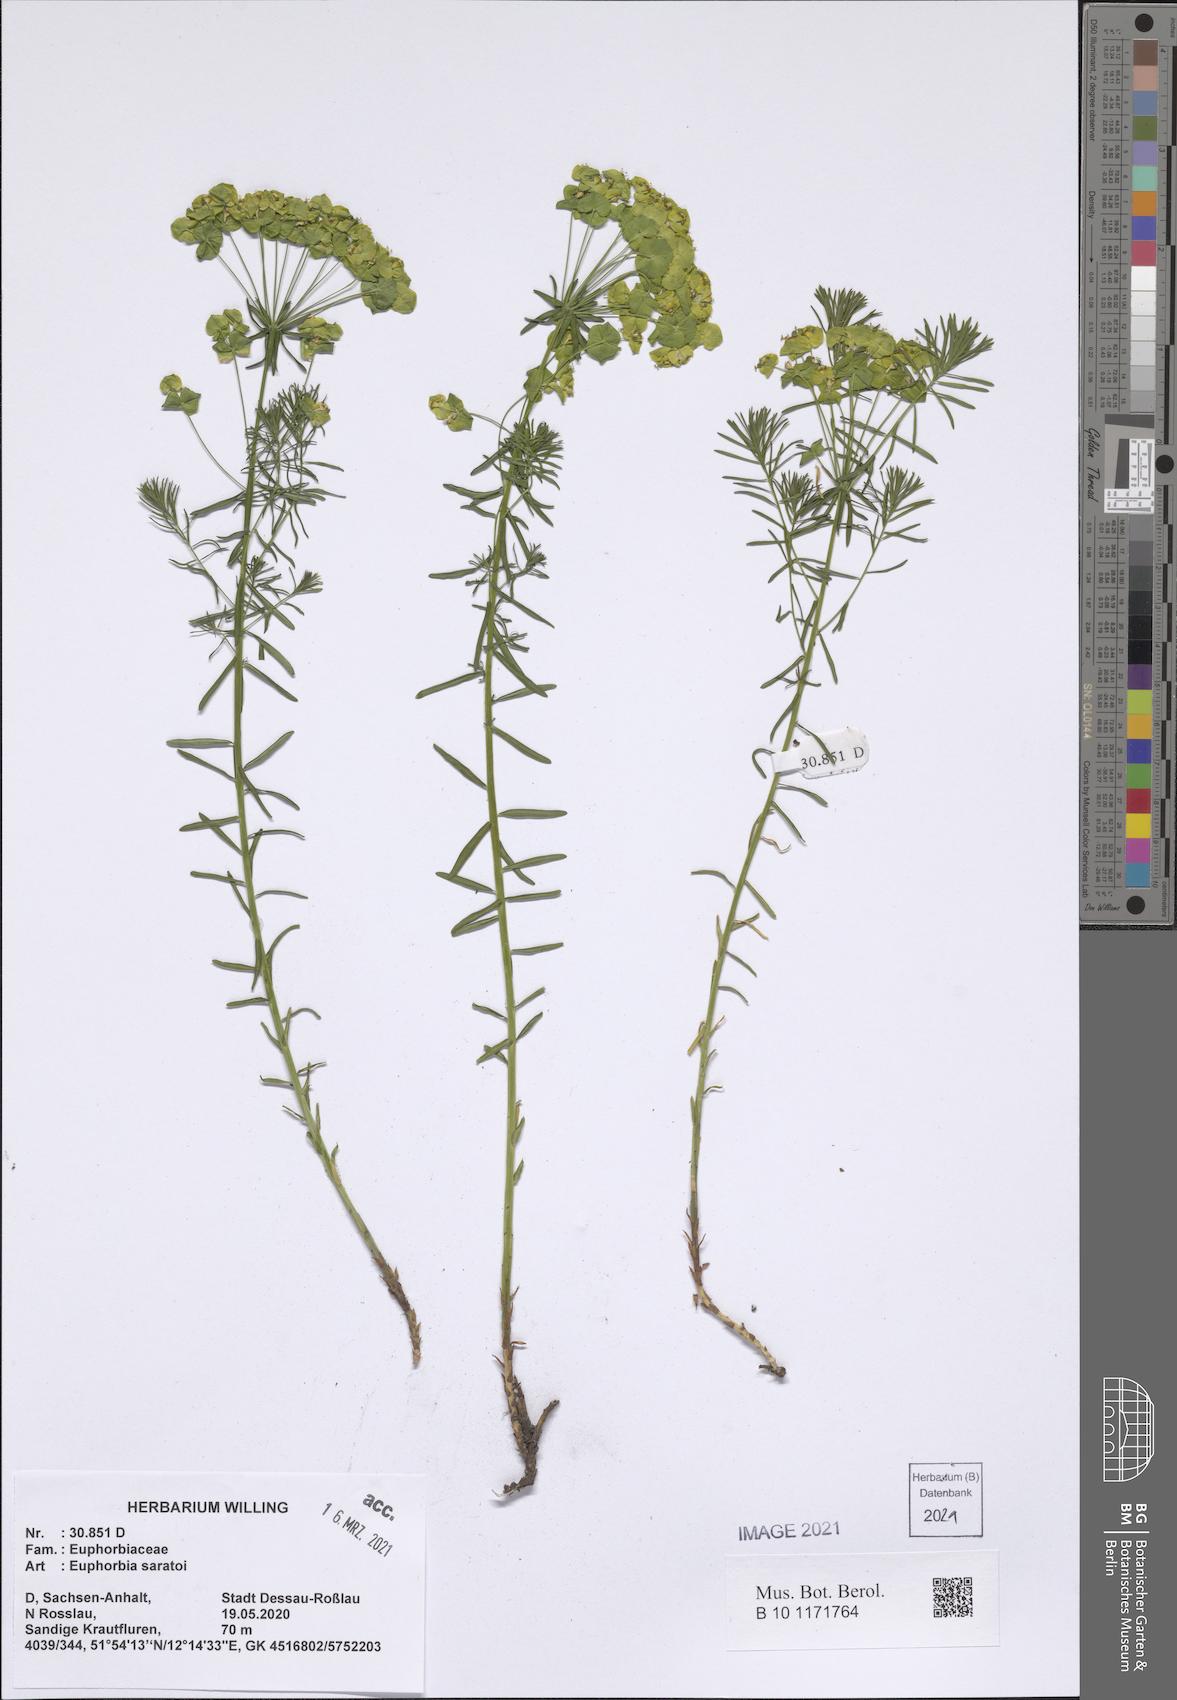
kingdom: Plantae
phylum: Tracheophyta
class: Magnoliopsida
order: Malpighiales
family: Euphorbiaceae
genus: Euphorbia
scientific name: Euphorbia saratoi
